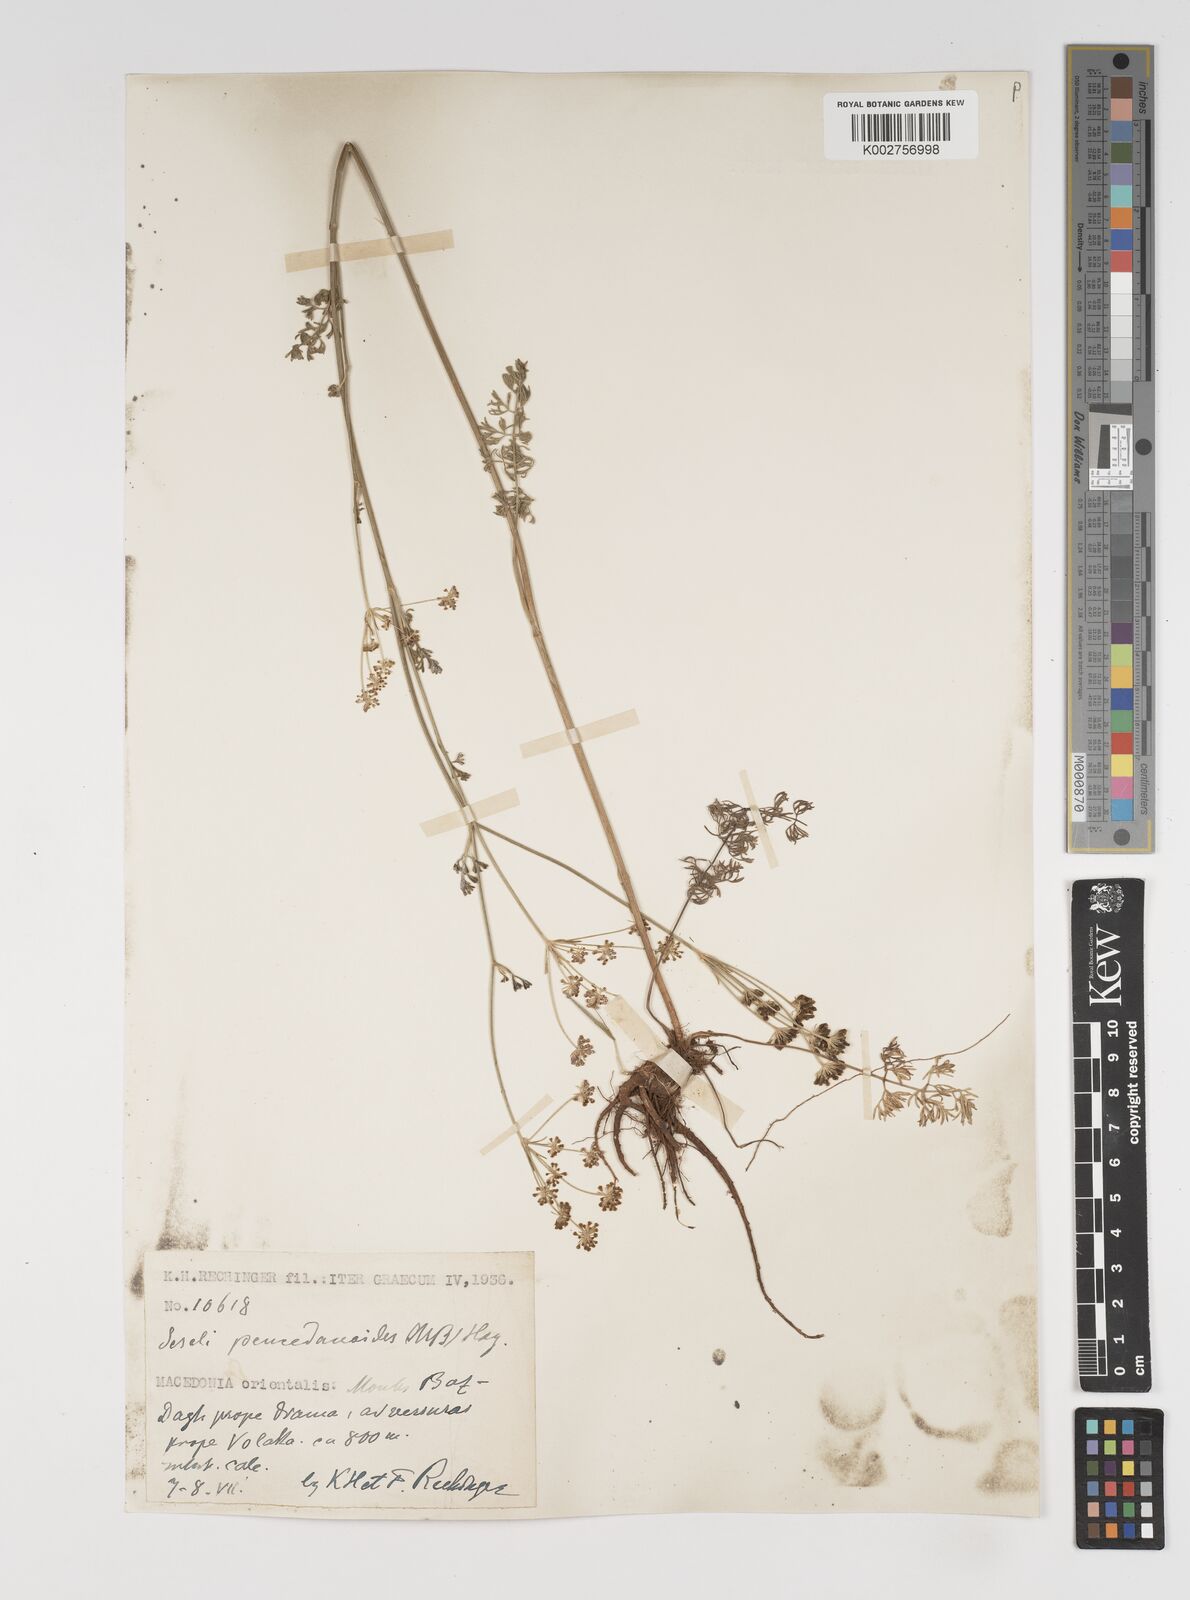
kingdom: Plantae
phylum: Tracheophyta
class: Magnoliopsida
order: Apiales
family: Apiaceae
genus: Gasparinia
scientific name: Gasparinia peucedanoides
